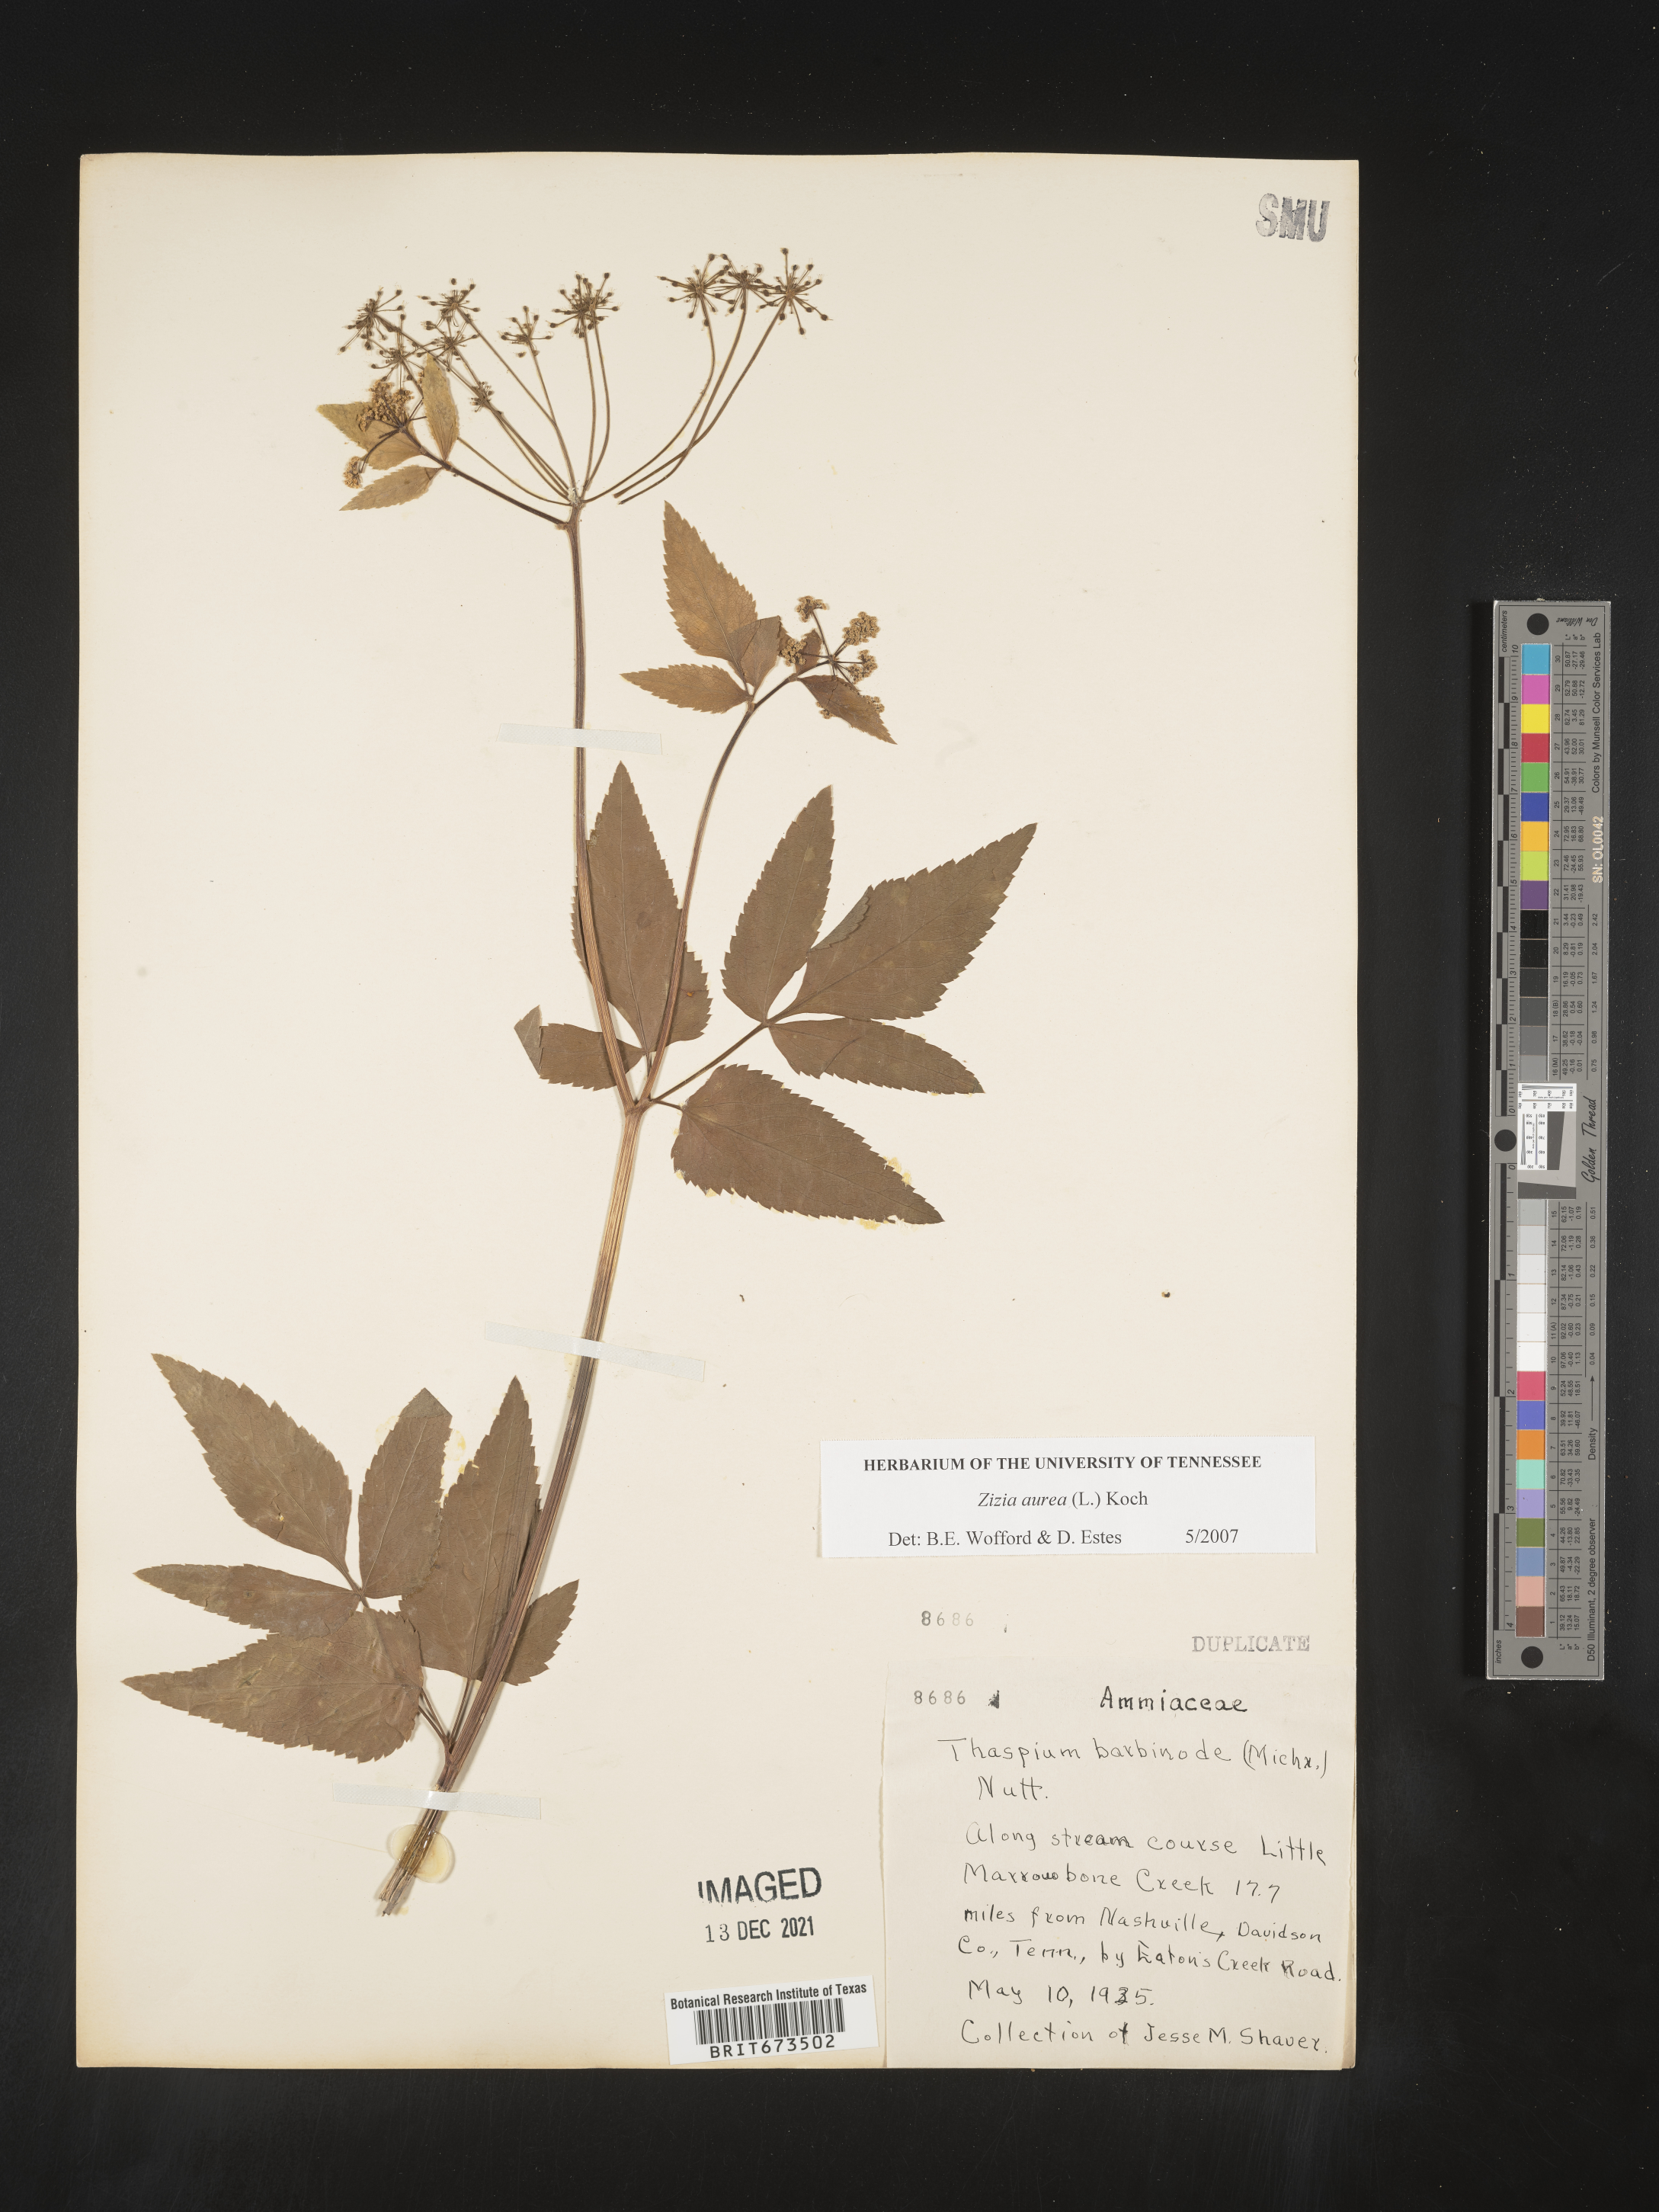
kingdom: Plantae
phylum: Tracheophyta
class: Magnoliopsida
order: Apiales
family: Apiaceae
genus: Zizia
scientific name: Zizia aurea
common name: Golden alexanders
